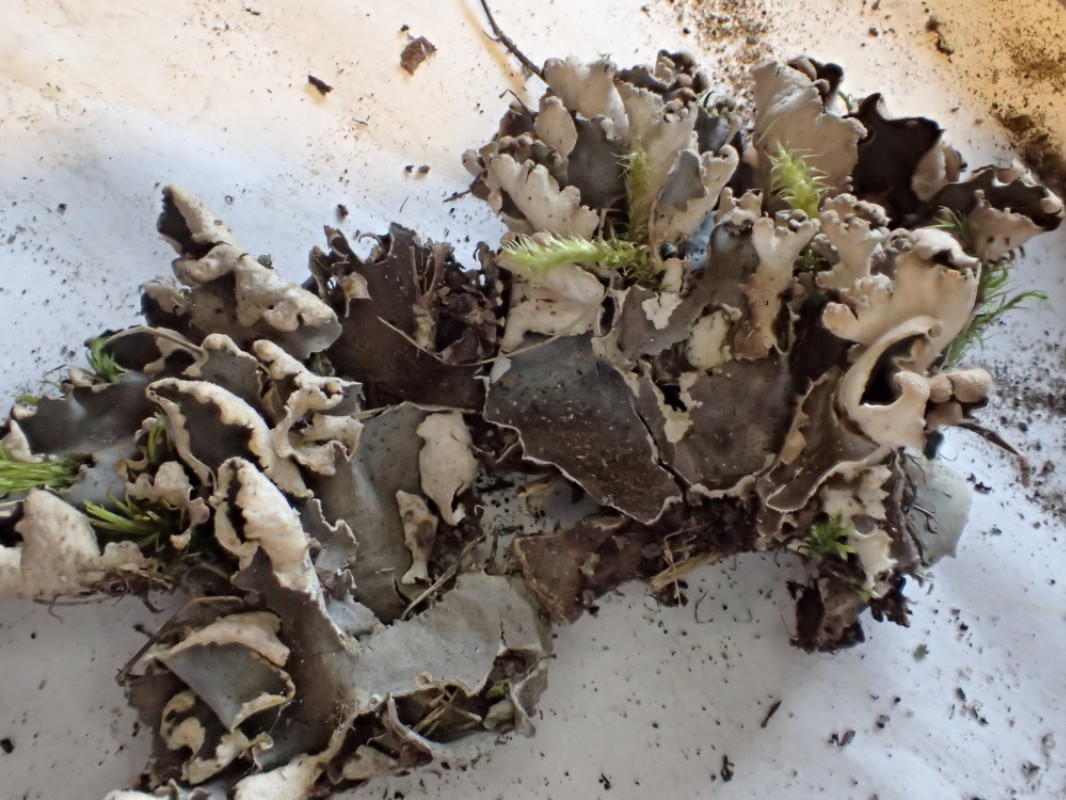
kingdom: Fungi
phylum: Ascomycota
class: Lecanoromycetes
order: Peltigerales
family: Peltigeraceae
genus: Peltigera
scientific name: Peltigera hymenina
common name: hinde-skjoldlav
